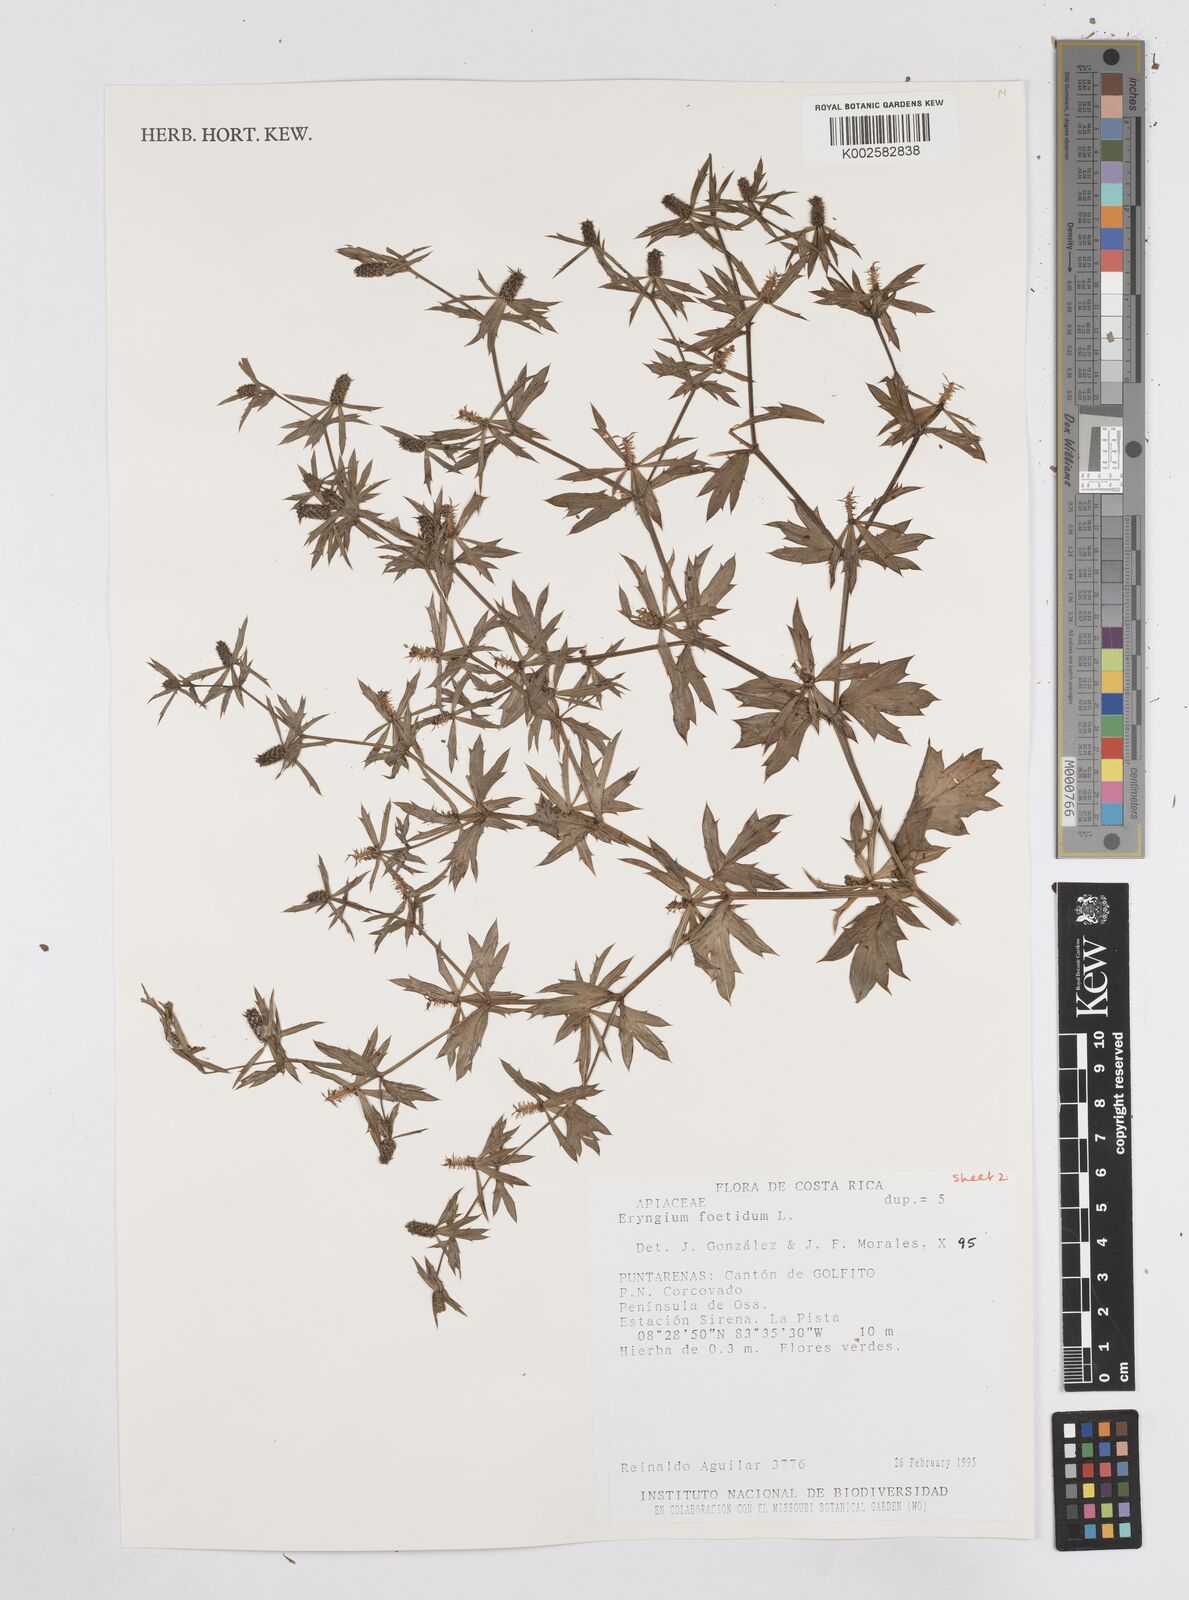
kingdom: Plantae
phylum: Tracheophyta
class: Magnoliopsida
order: Apiales
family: Apiaceae
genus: Eryngium
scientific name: Eryngium foetidum
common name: Fitweed
